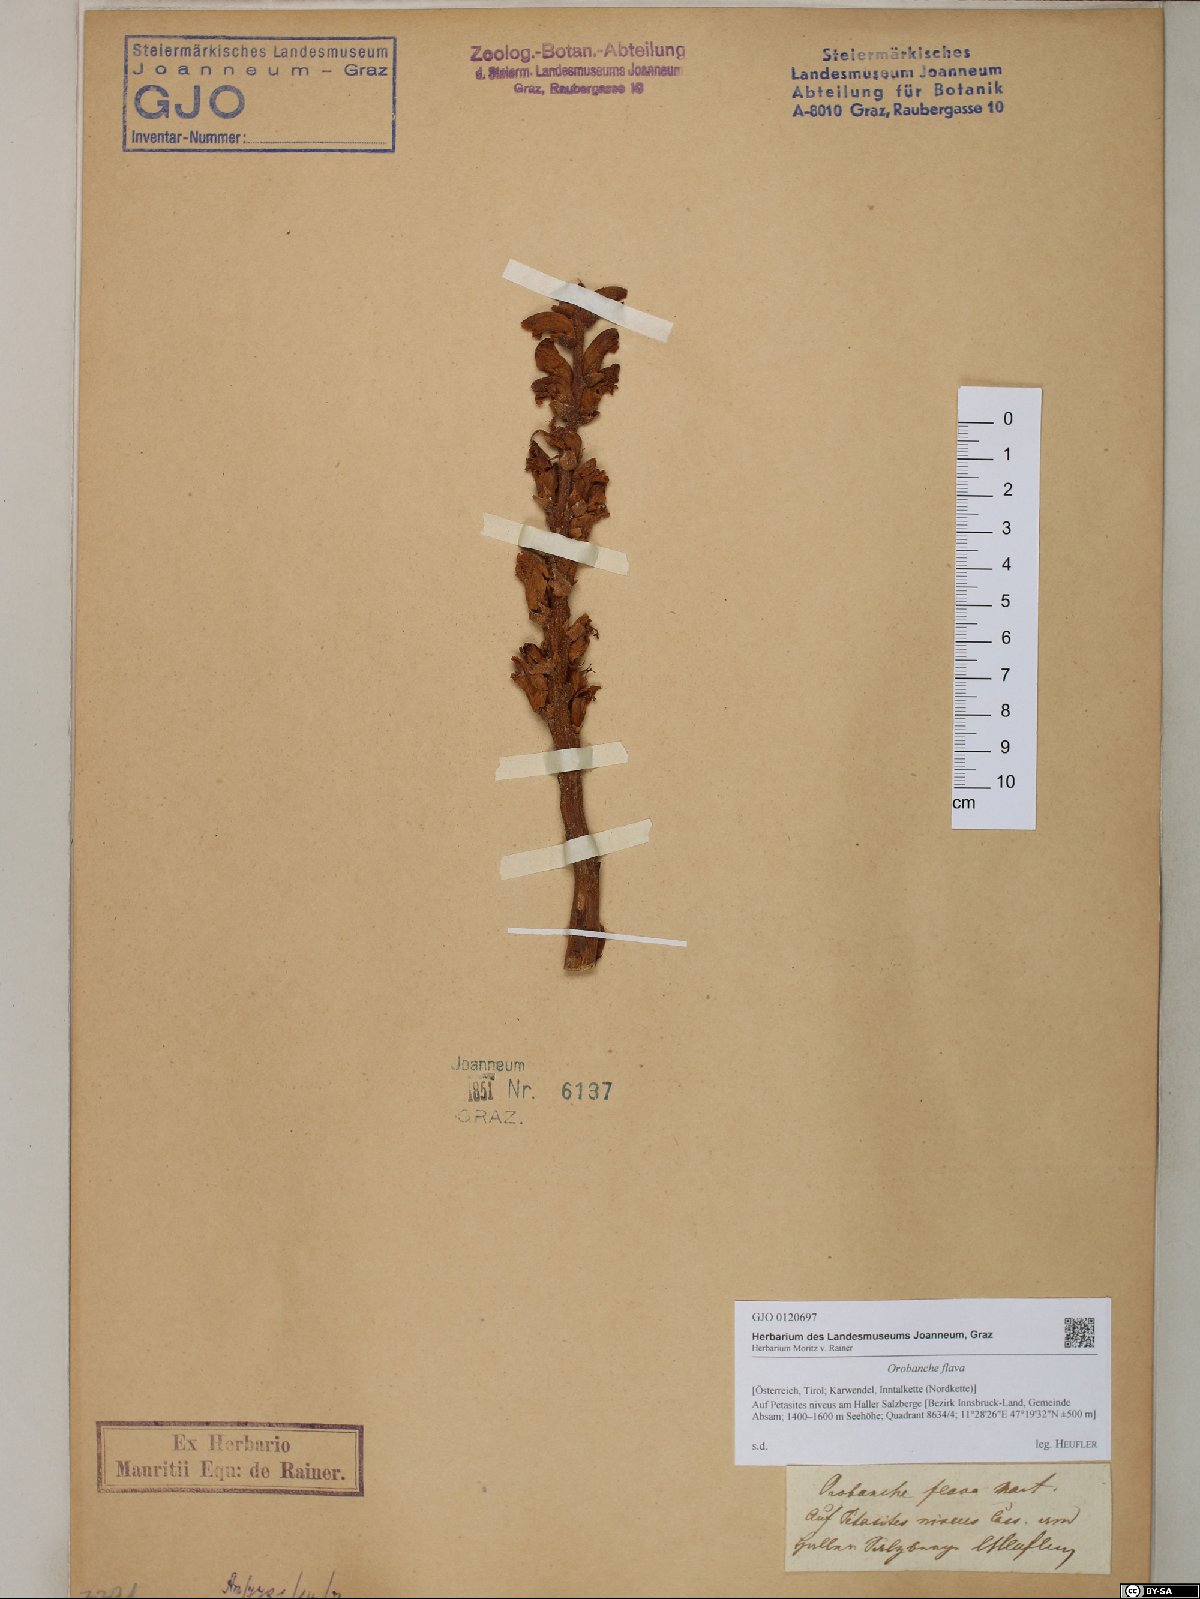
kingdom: Plantae
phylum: Tracheophyta
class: Magnoliopsida
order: Lamiales
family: Orobanchaceae
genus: Orobanche
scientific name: Orobanche flava
